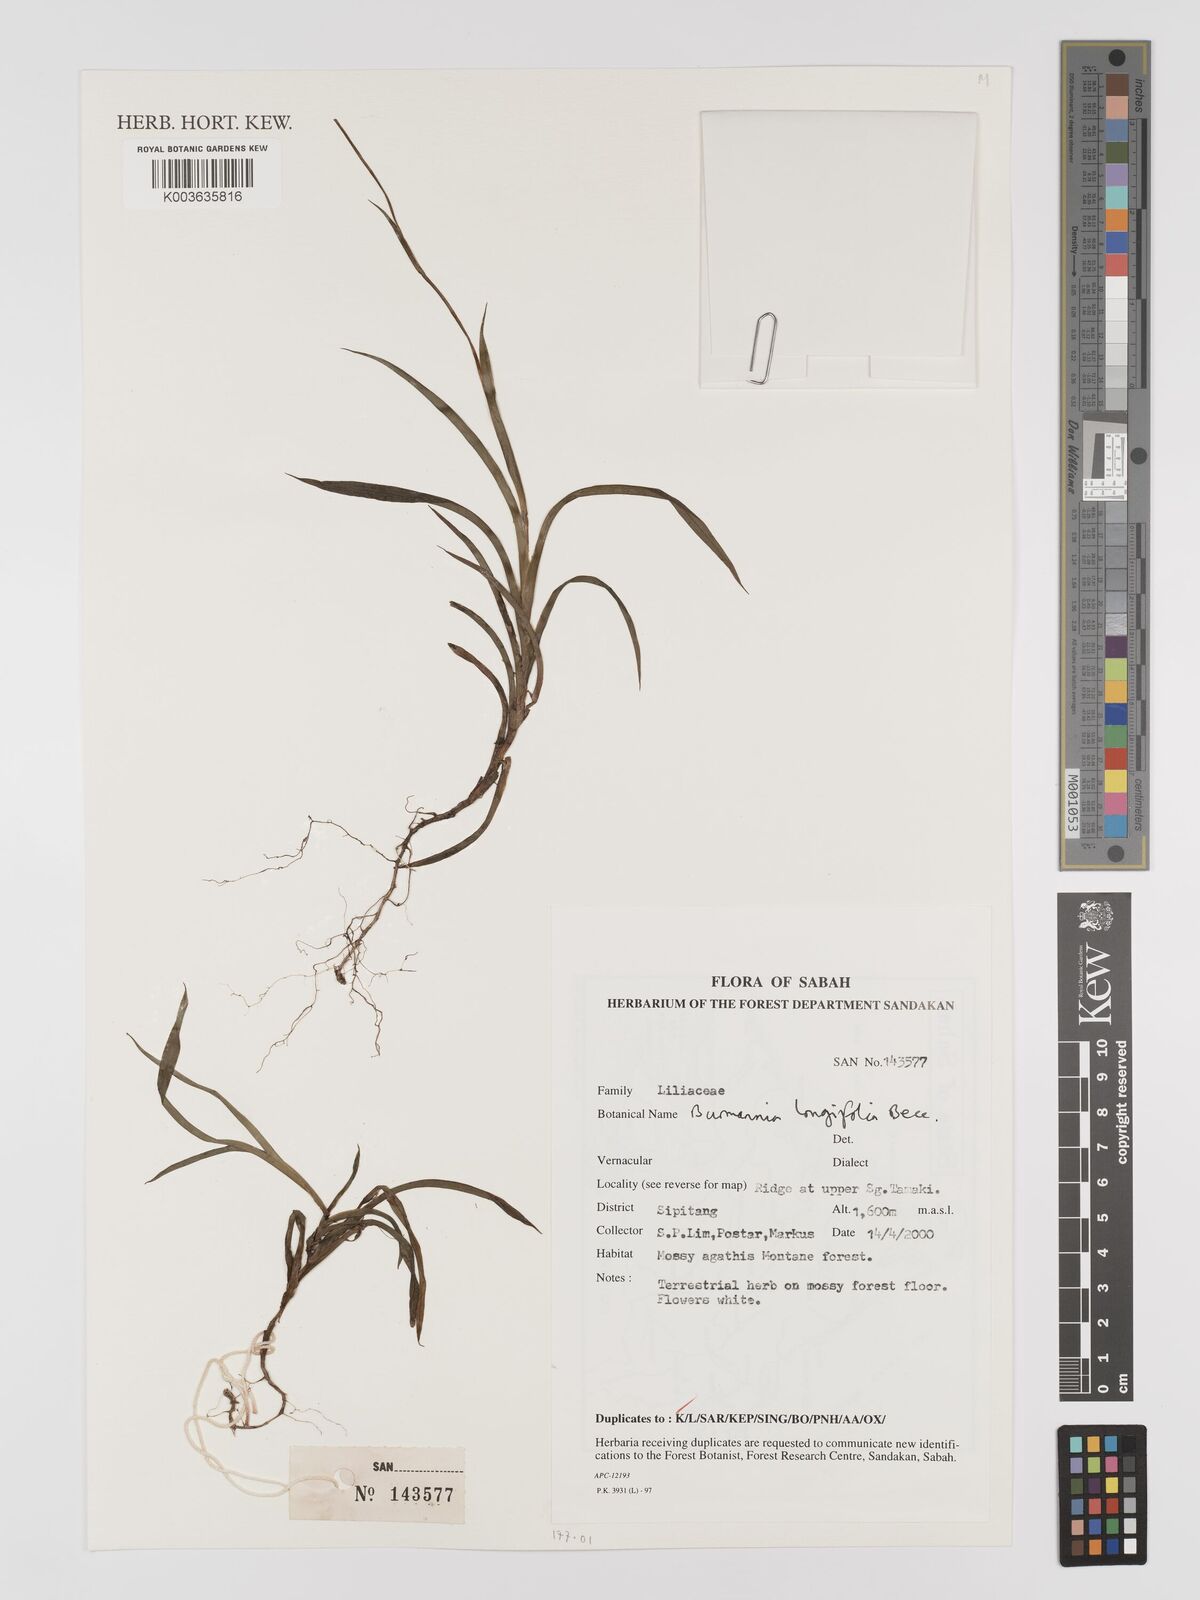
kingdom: Plantae
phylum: Tracheophyta
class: Liliopsida
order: Dioscoreales
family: Burmanniaceae
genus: Burmannia
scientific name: Burmannia longifolia
